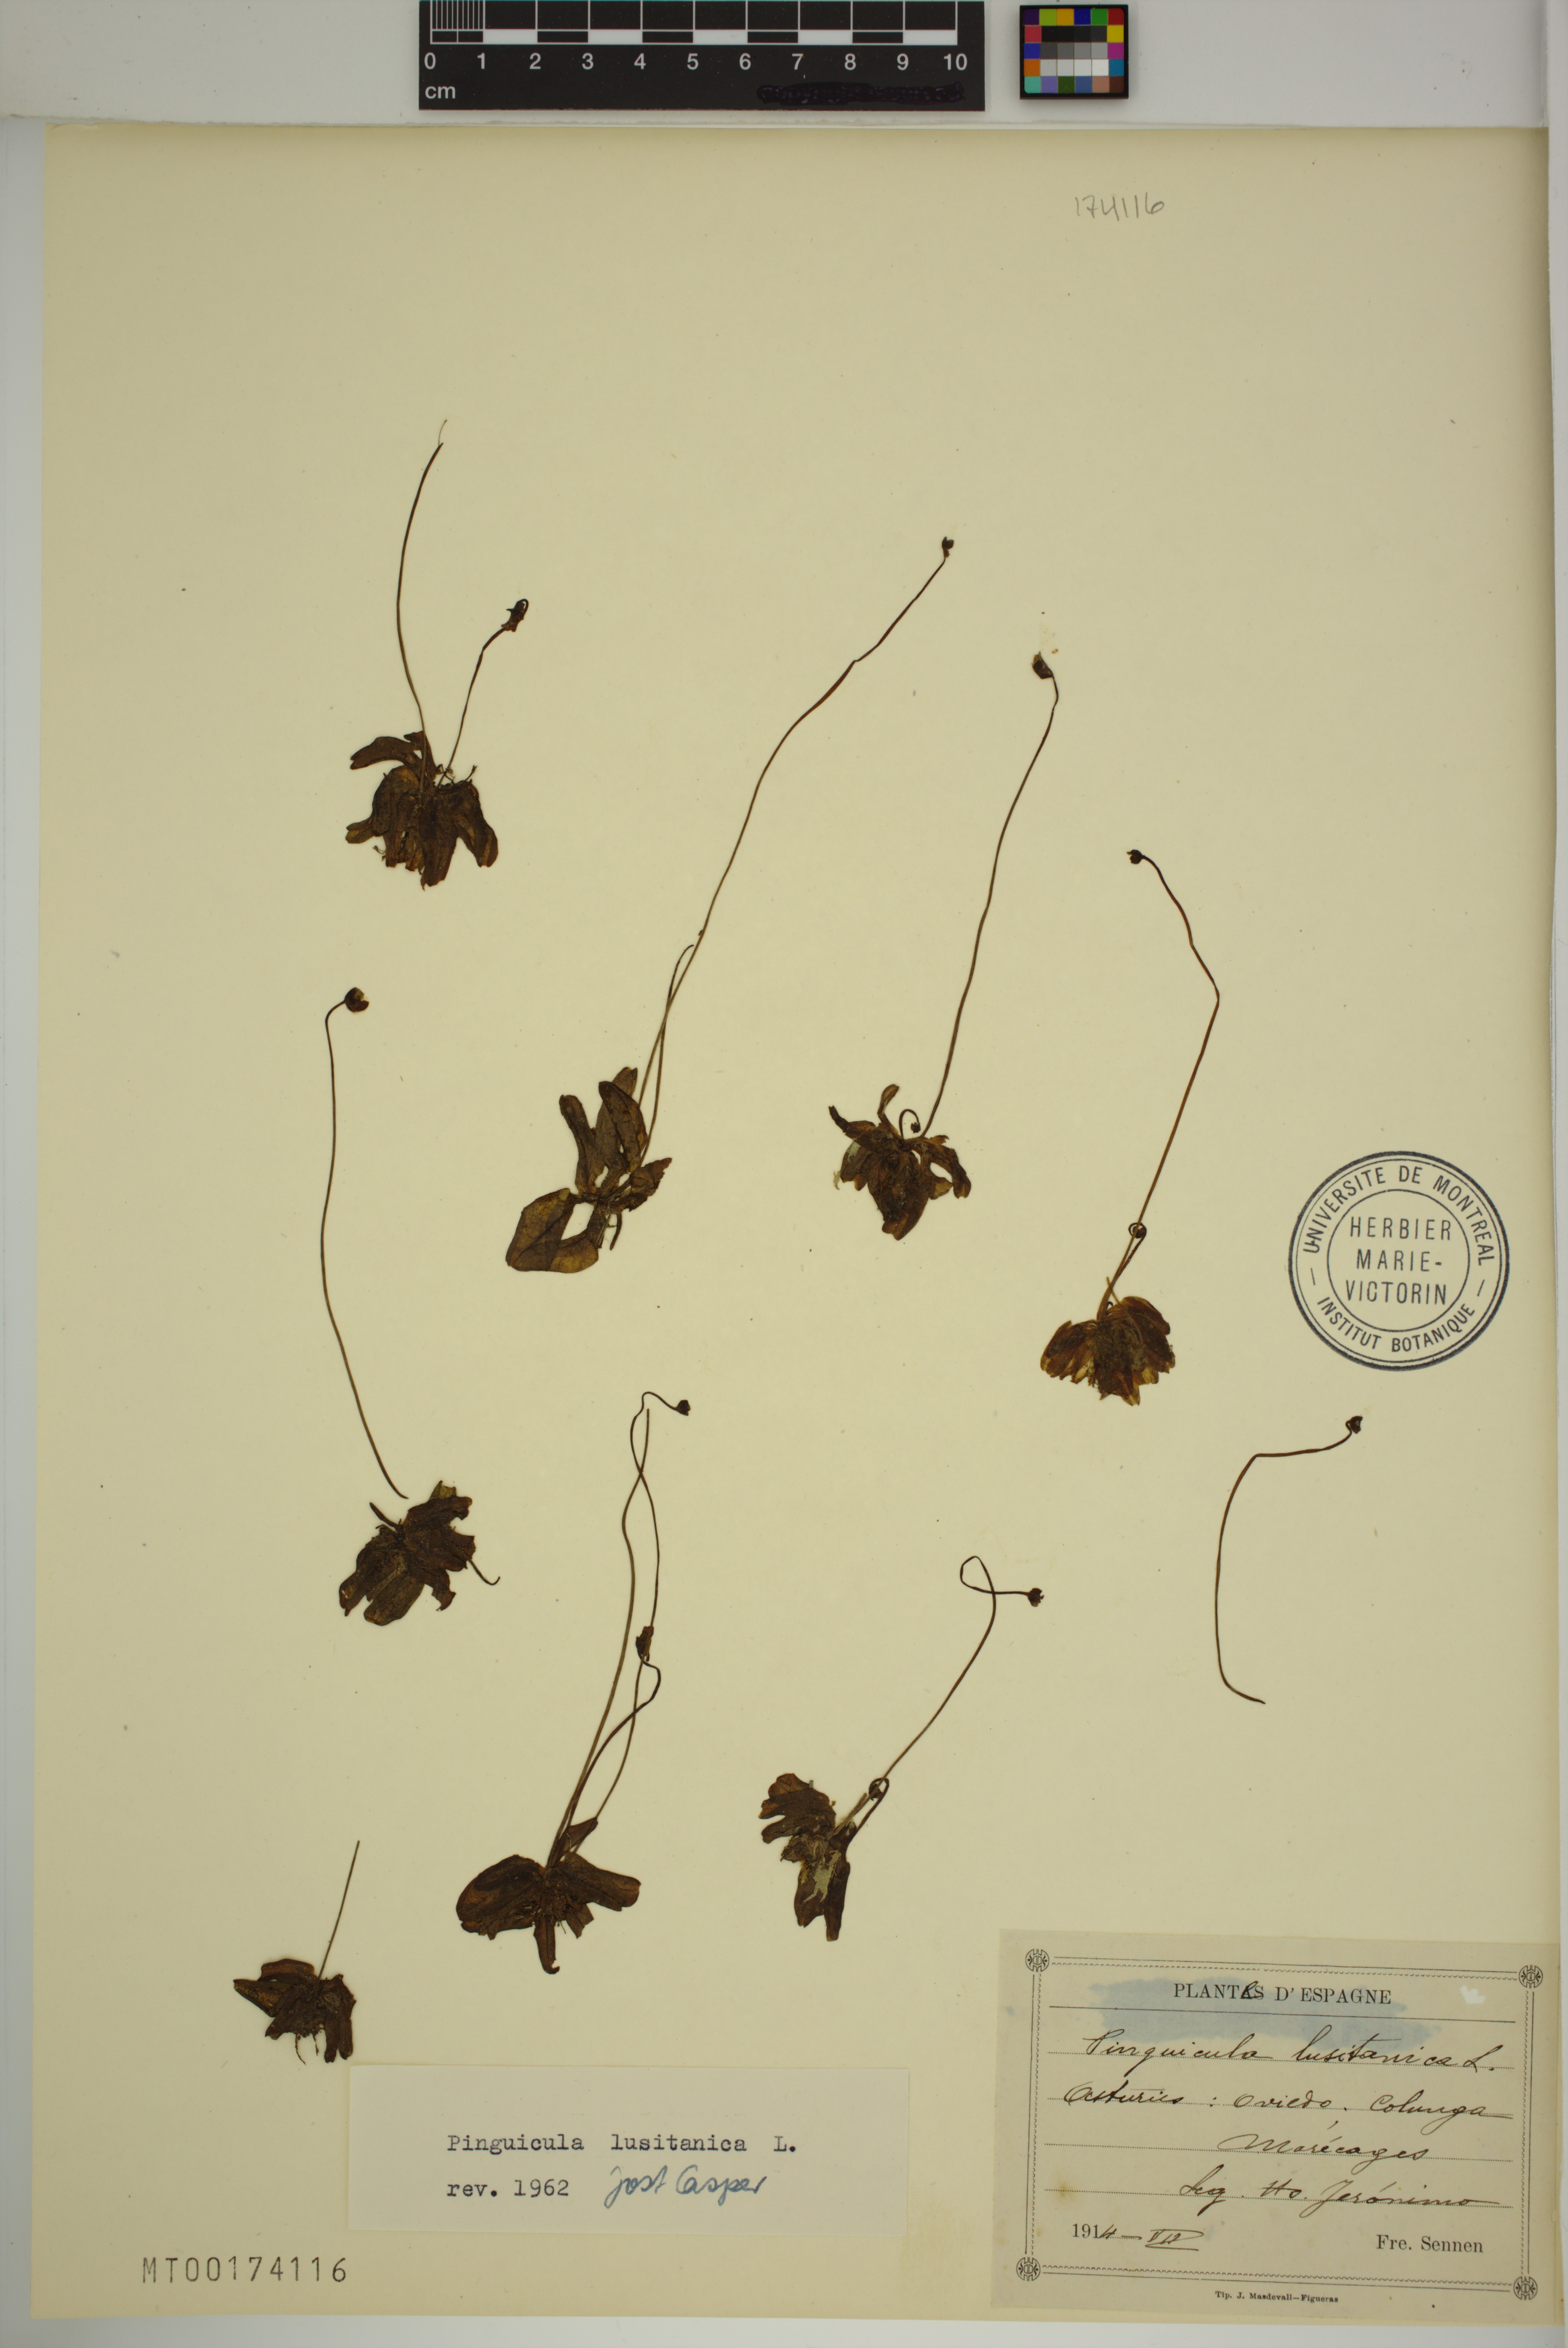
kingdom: Plantae
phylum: Tracheophyta
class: Magnoliopsida
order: Lamiales
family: Lentibulariaceae
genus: Pinguicula
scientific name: Pinguicula lusitanica
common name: Pale butterwort
